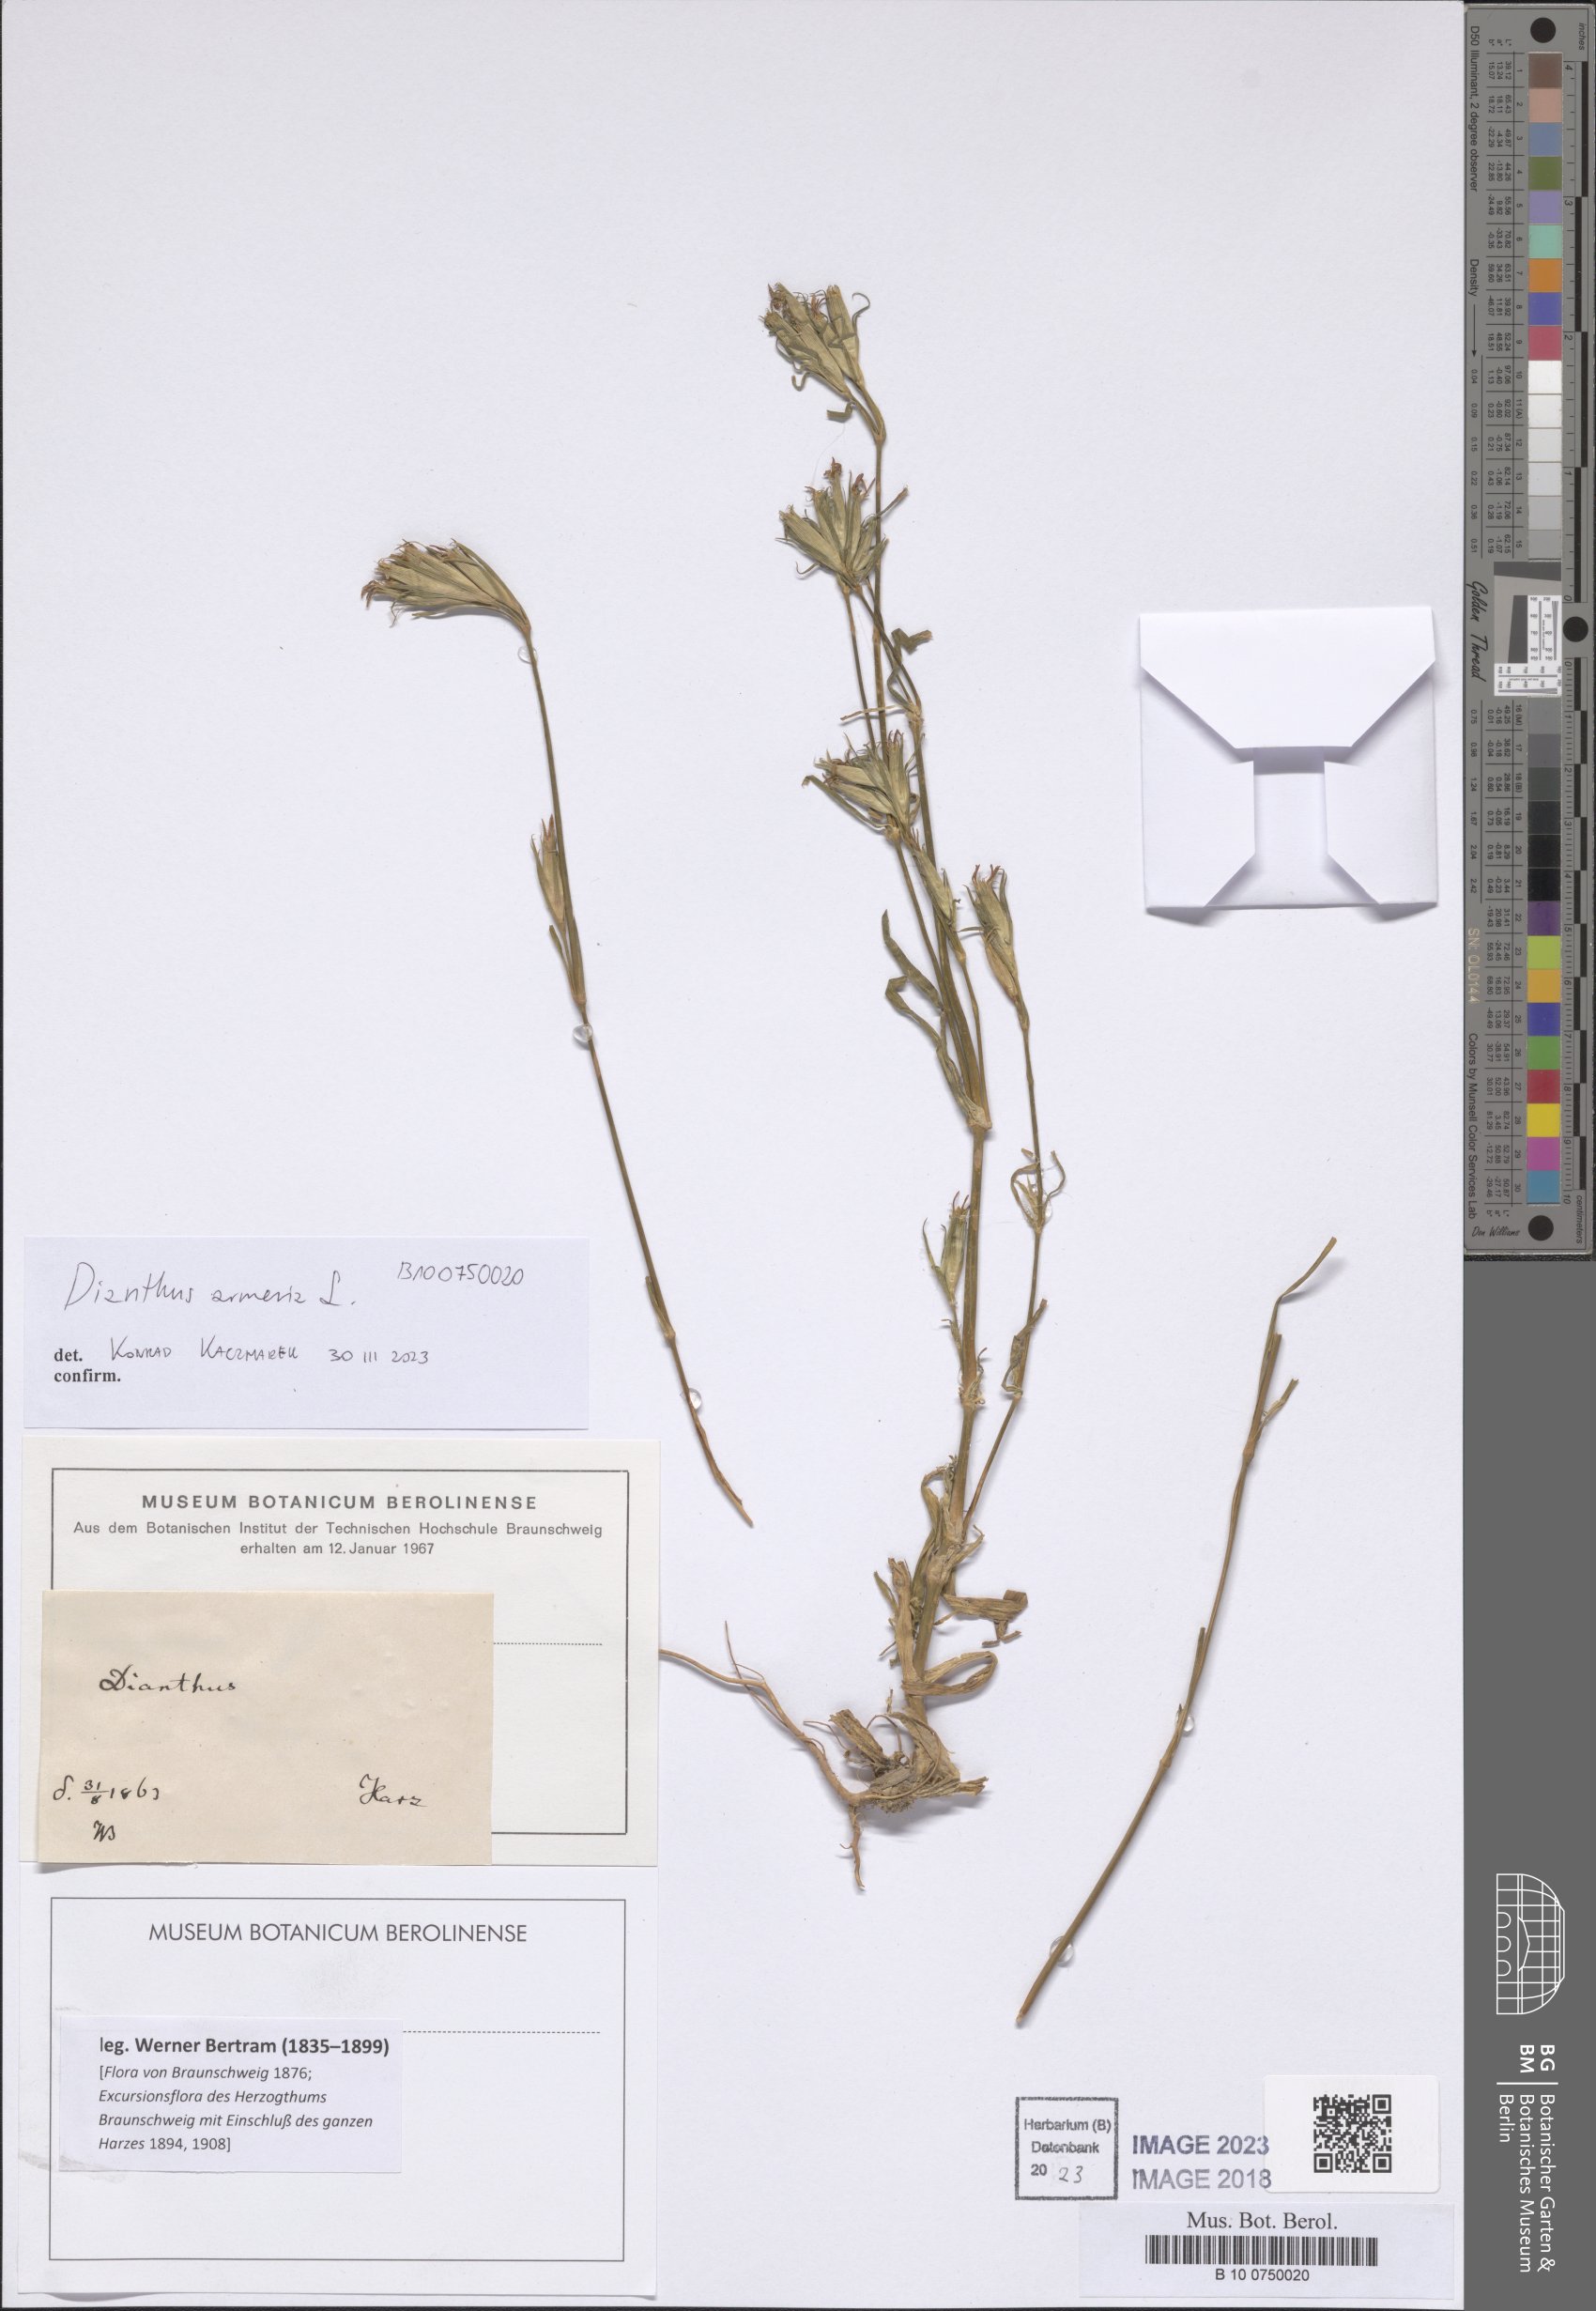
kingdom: Plantae
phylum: Tracheophyta
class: Magnoliopsida
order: Caryophyllales
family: Caryophyllaceae
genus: Dianthus
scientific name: Dianthus armeria
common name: Deptford pink
